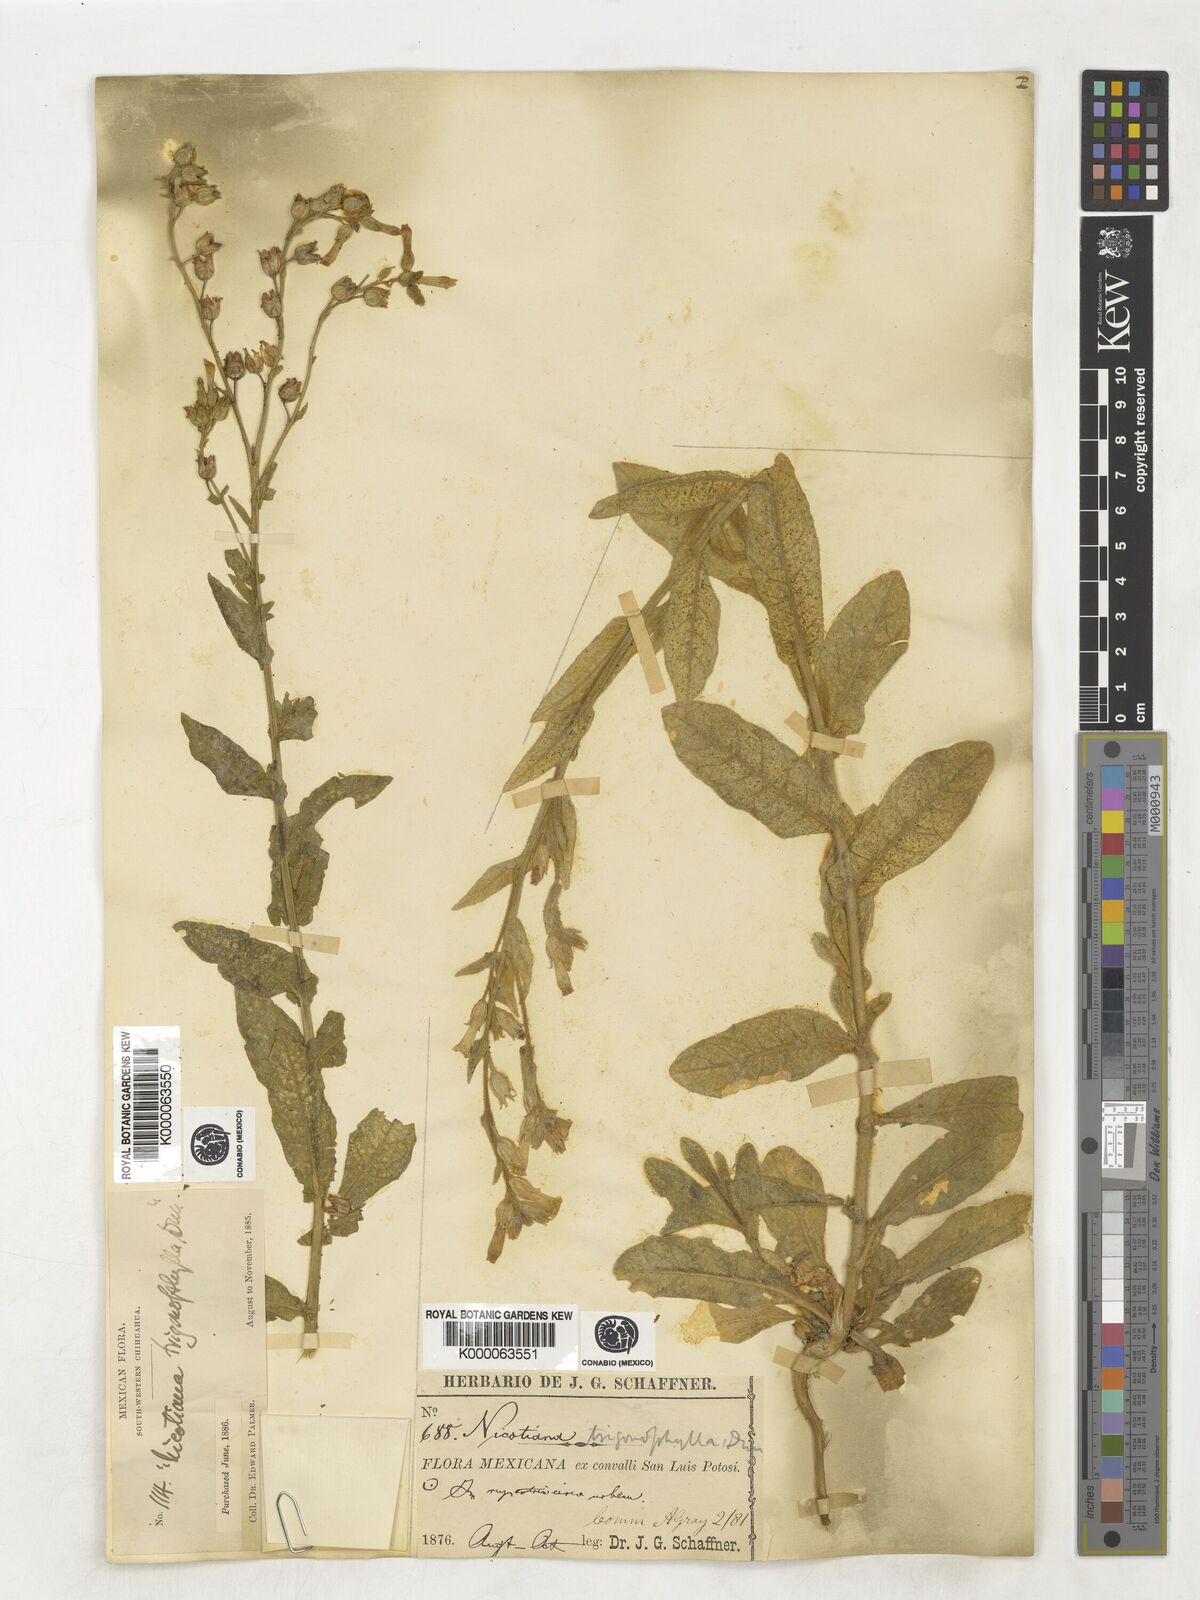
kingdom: Plantae
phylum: Tracheophyta
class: Magnoliopsida
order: Solanales
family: Solanaceae
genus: Nicotiana
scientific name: Nicotiana obtusifolia
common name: Desert tobacco
